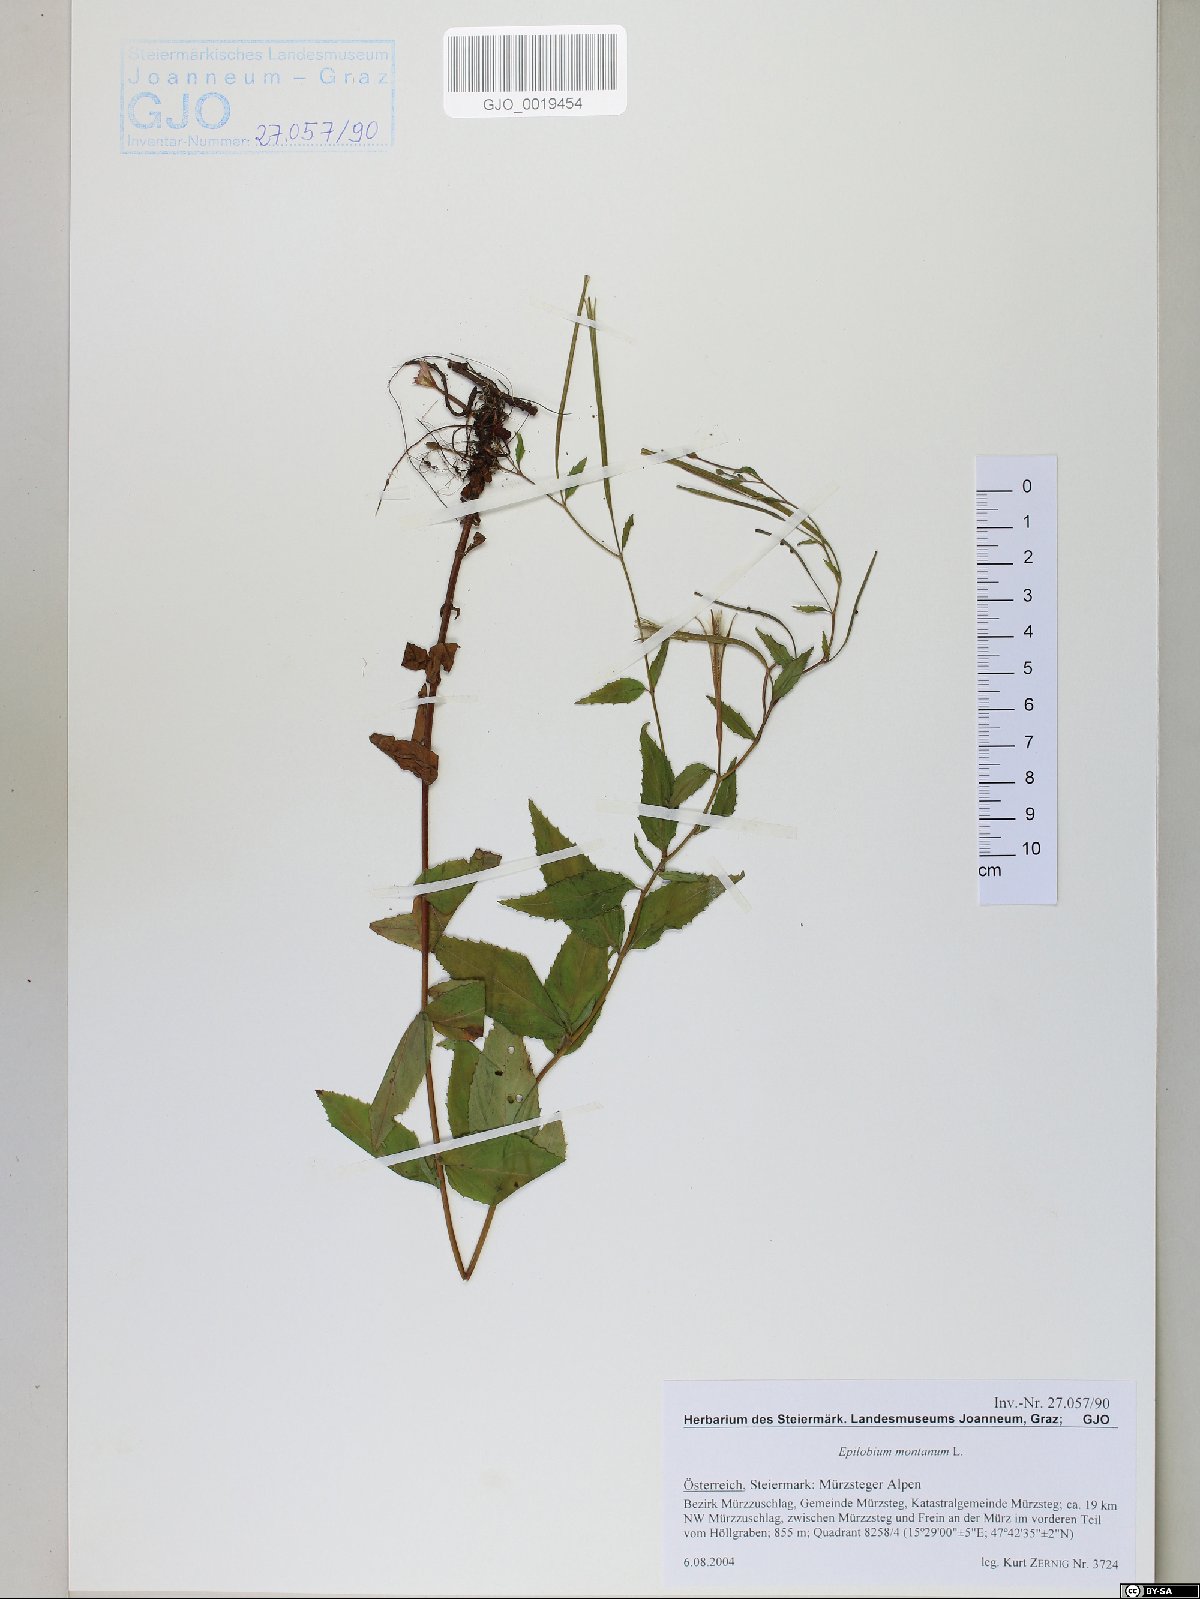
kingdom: Plantae
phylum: Tracheophyta
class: Magnoliopsida
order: Myrtales
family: Onagraceae
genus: Epilobium
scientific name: Epilobium montanum
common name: Broad-leaved willowherb
